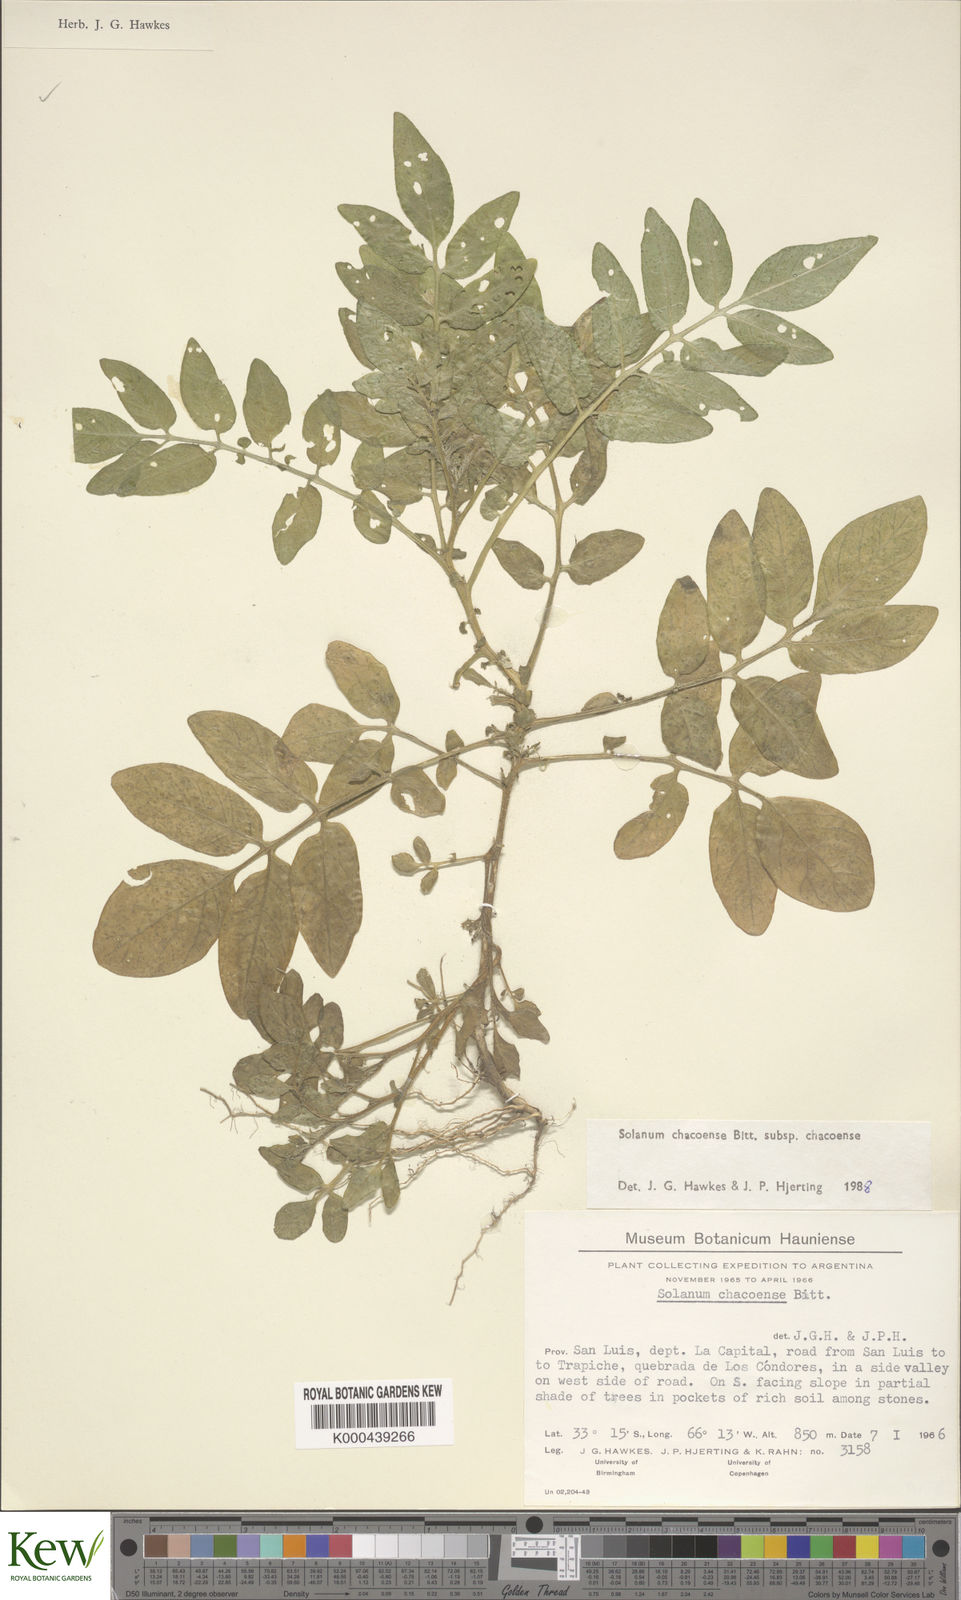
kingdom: Plantae
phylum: Tracheophyta
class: Magnoliopsida
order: Solanales
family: Solanaceae
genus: Solanum
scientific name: Solanum chacoense
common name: Chaco potato
